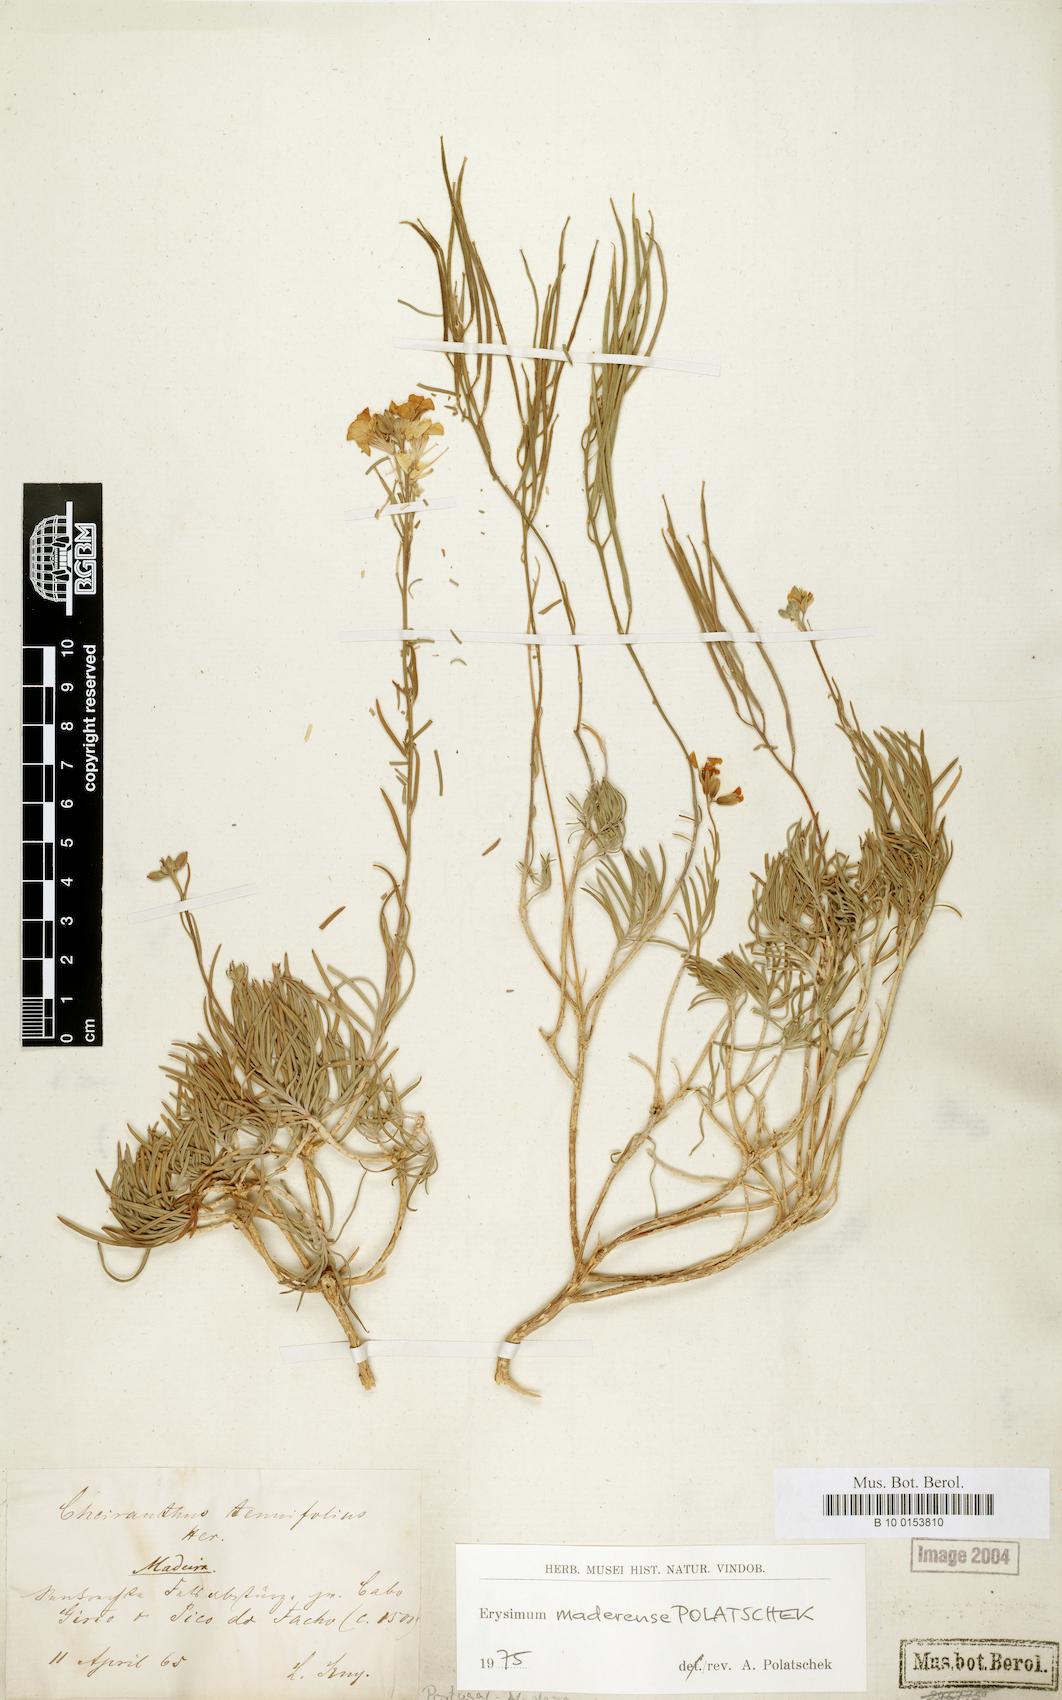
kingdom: Plantae
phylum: Tracheophyta
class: Magnoliopsida
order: Brassicales
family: Brassicaceae
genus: Erysimum
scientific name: Erysimum maderense
